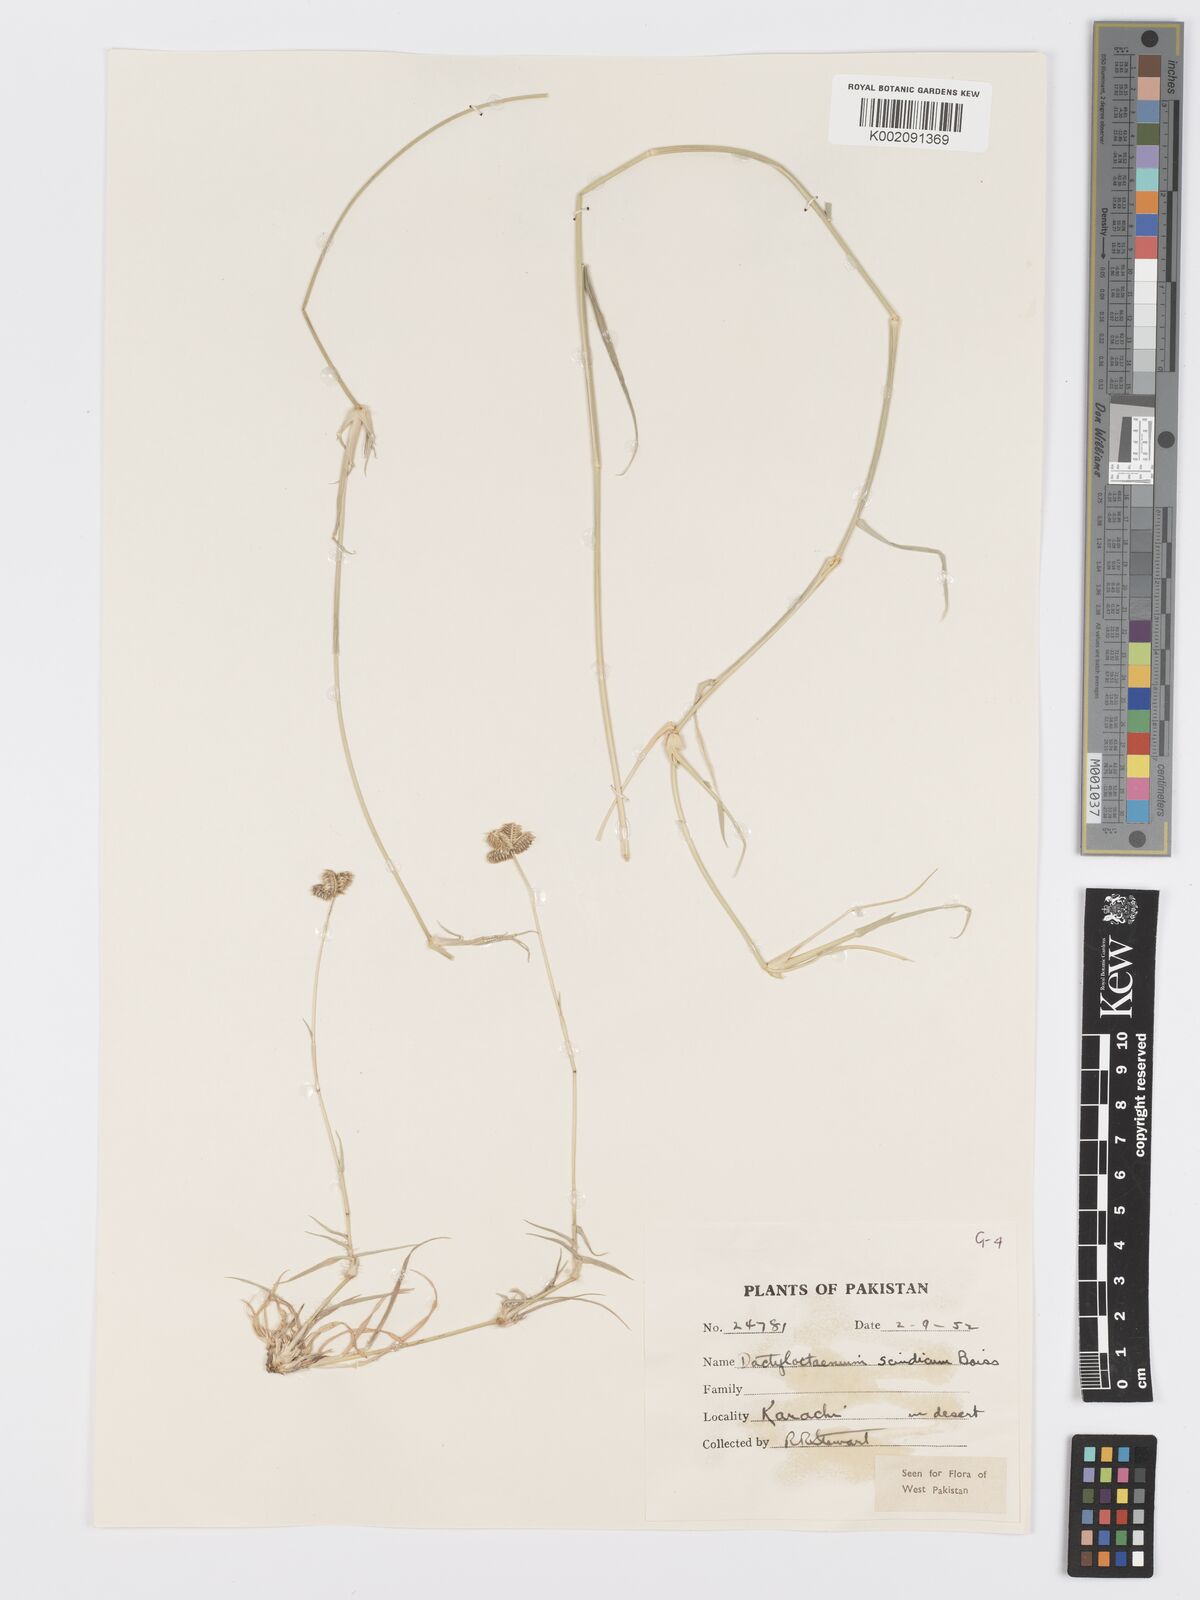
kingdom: Plantae
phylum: Tracheophyta
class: Liliopsida
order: Poales
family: Poaceae
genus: Dactyloctenium
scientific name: Dactyloctenium scindicum
